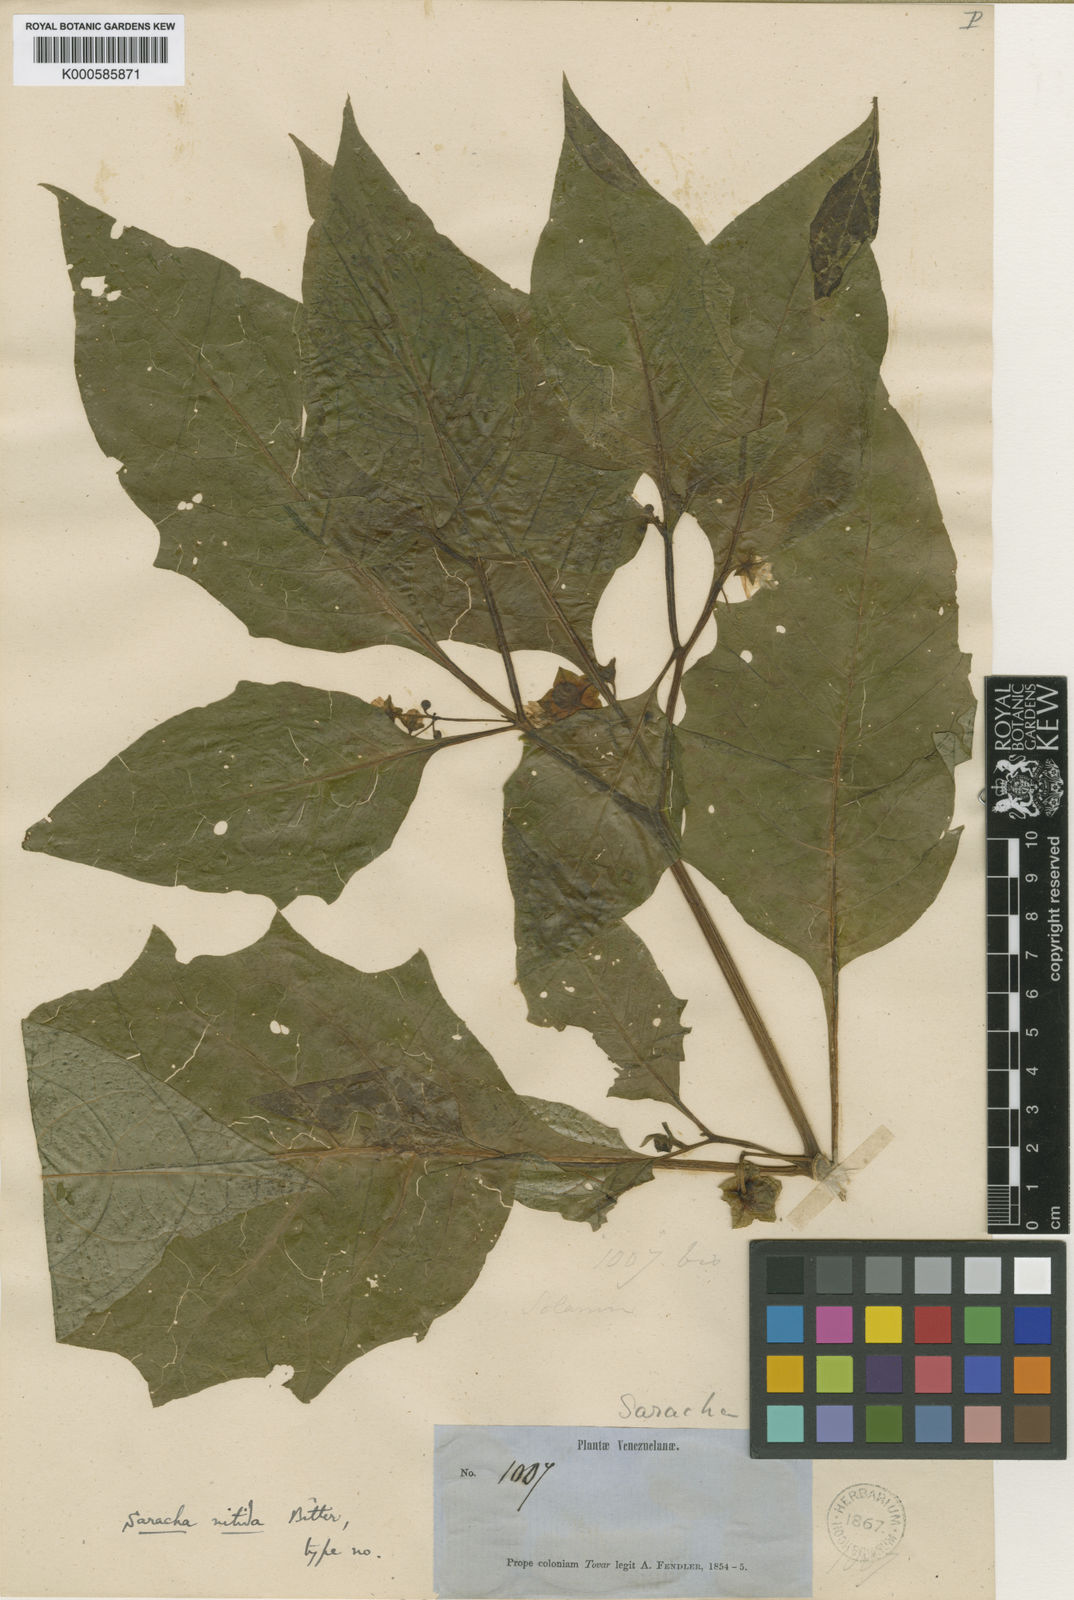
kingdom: Plantae
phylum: Tracheophyta
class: Magnoliopsida
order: Solanales
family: Solanaceae
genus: Jaltomata
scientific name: Jaltomata nitida
